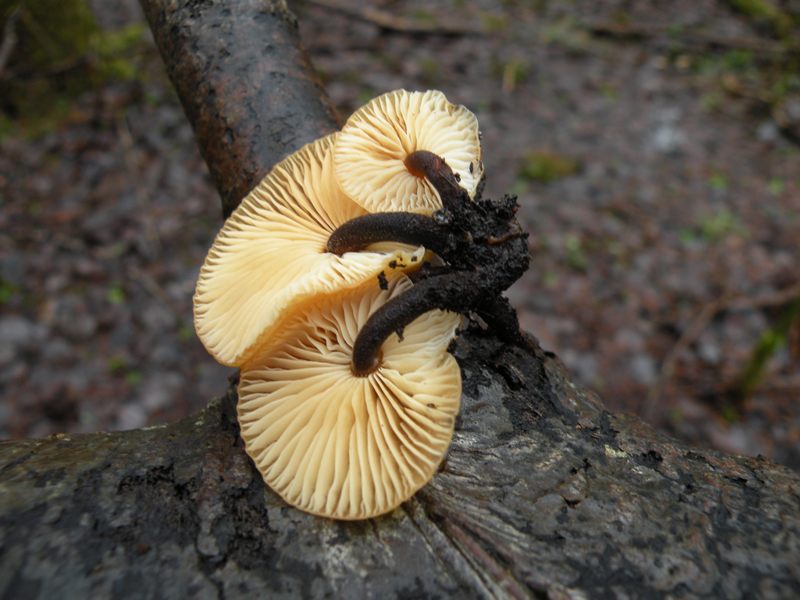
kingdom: Fungi
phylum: Basidiomycota
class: Agaricomycetes
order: Agaricales
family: Physalacriaceae
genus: Flammulina
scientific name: Flammulina populicola
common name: poppel-fløjlsfod
